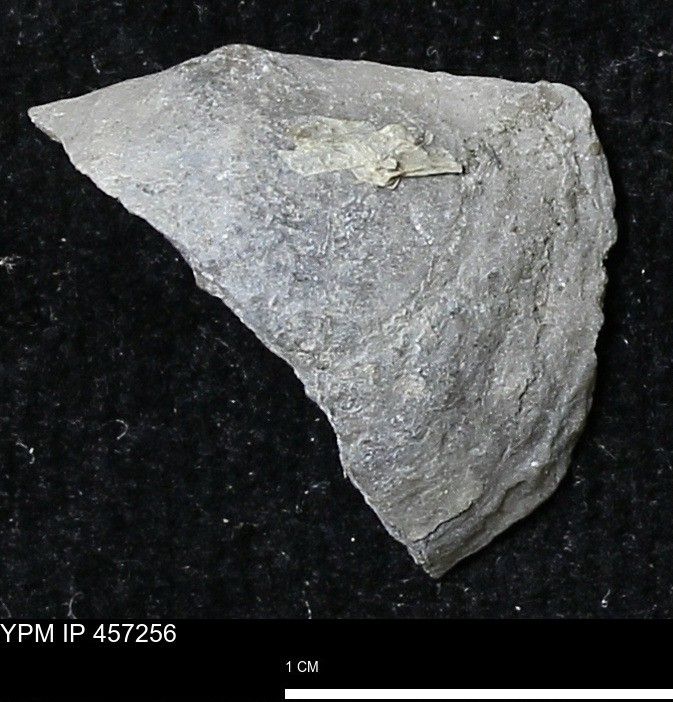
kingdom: Animalia
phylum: Brachiopoda
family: Strophodontidae
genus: Pholidostrophia
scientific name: Pholidostrophia
